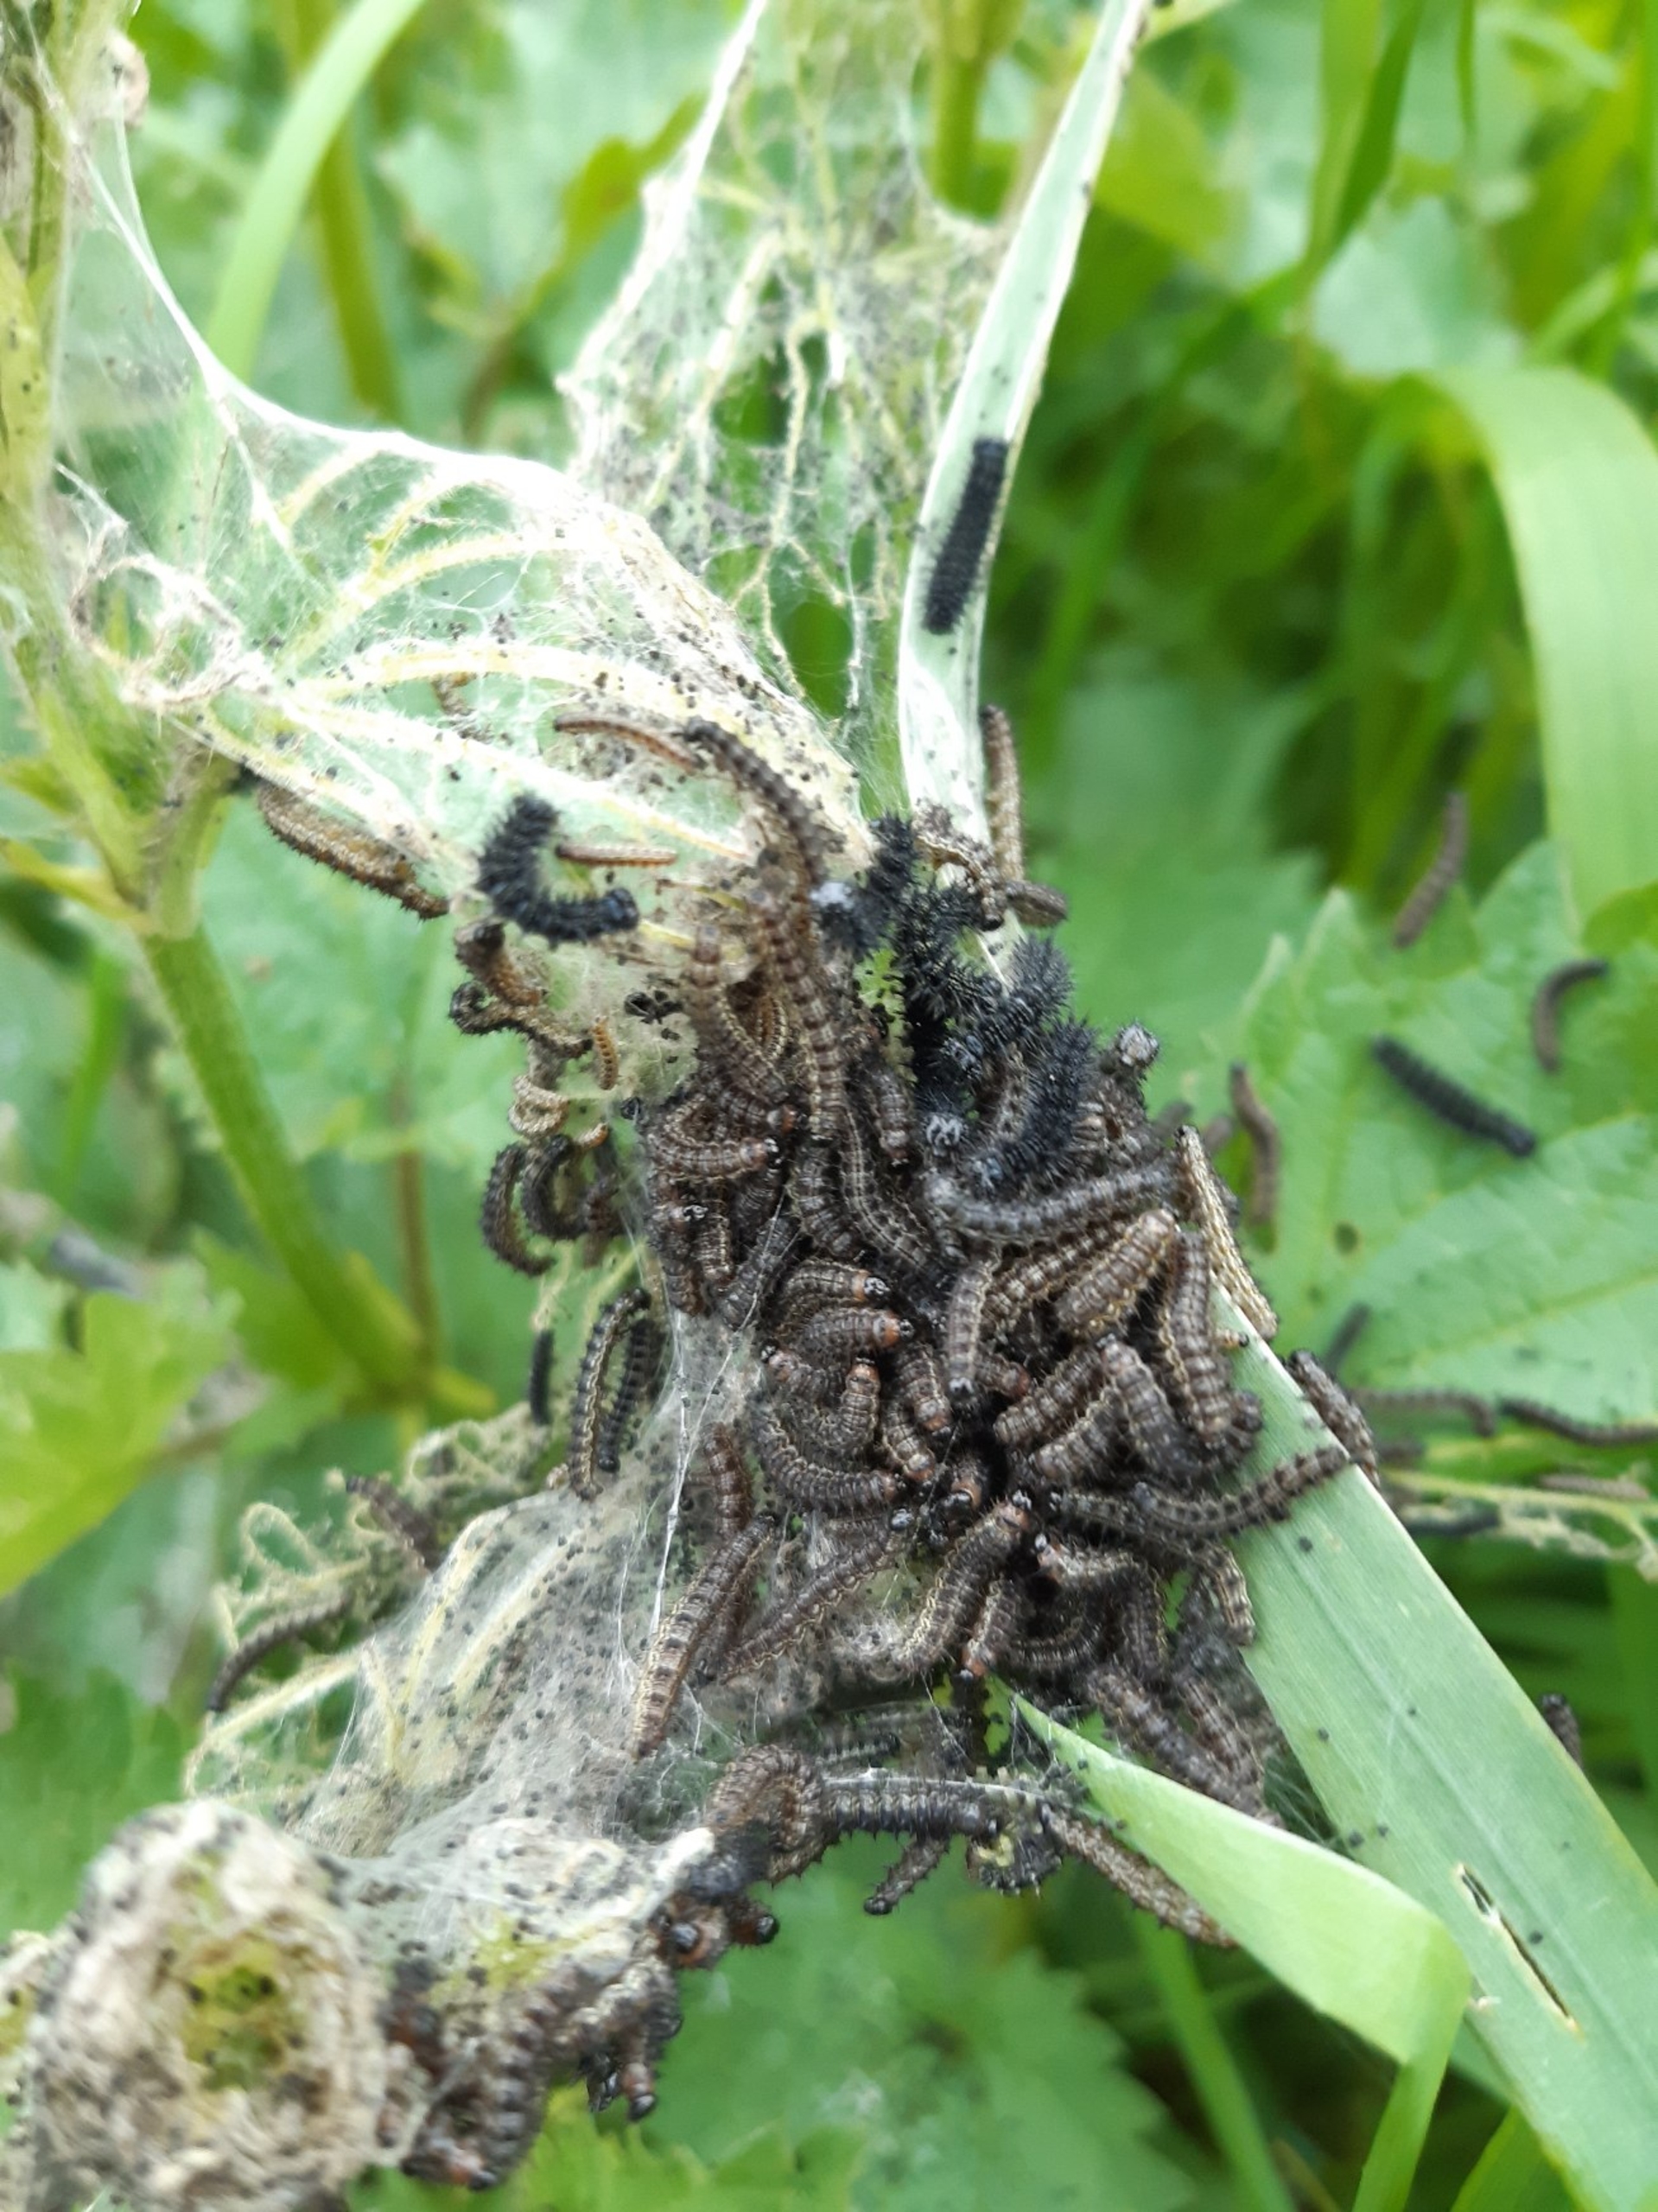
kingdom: Animalia
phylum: Arthropoda
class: Insecta
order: Lepidoptera
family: Nymphalidae
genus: Aglais
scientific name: Aglais urticae
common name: Nældens takvinge
